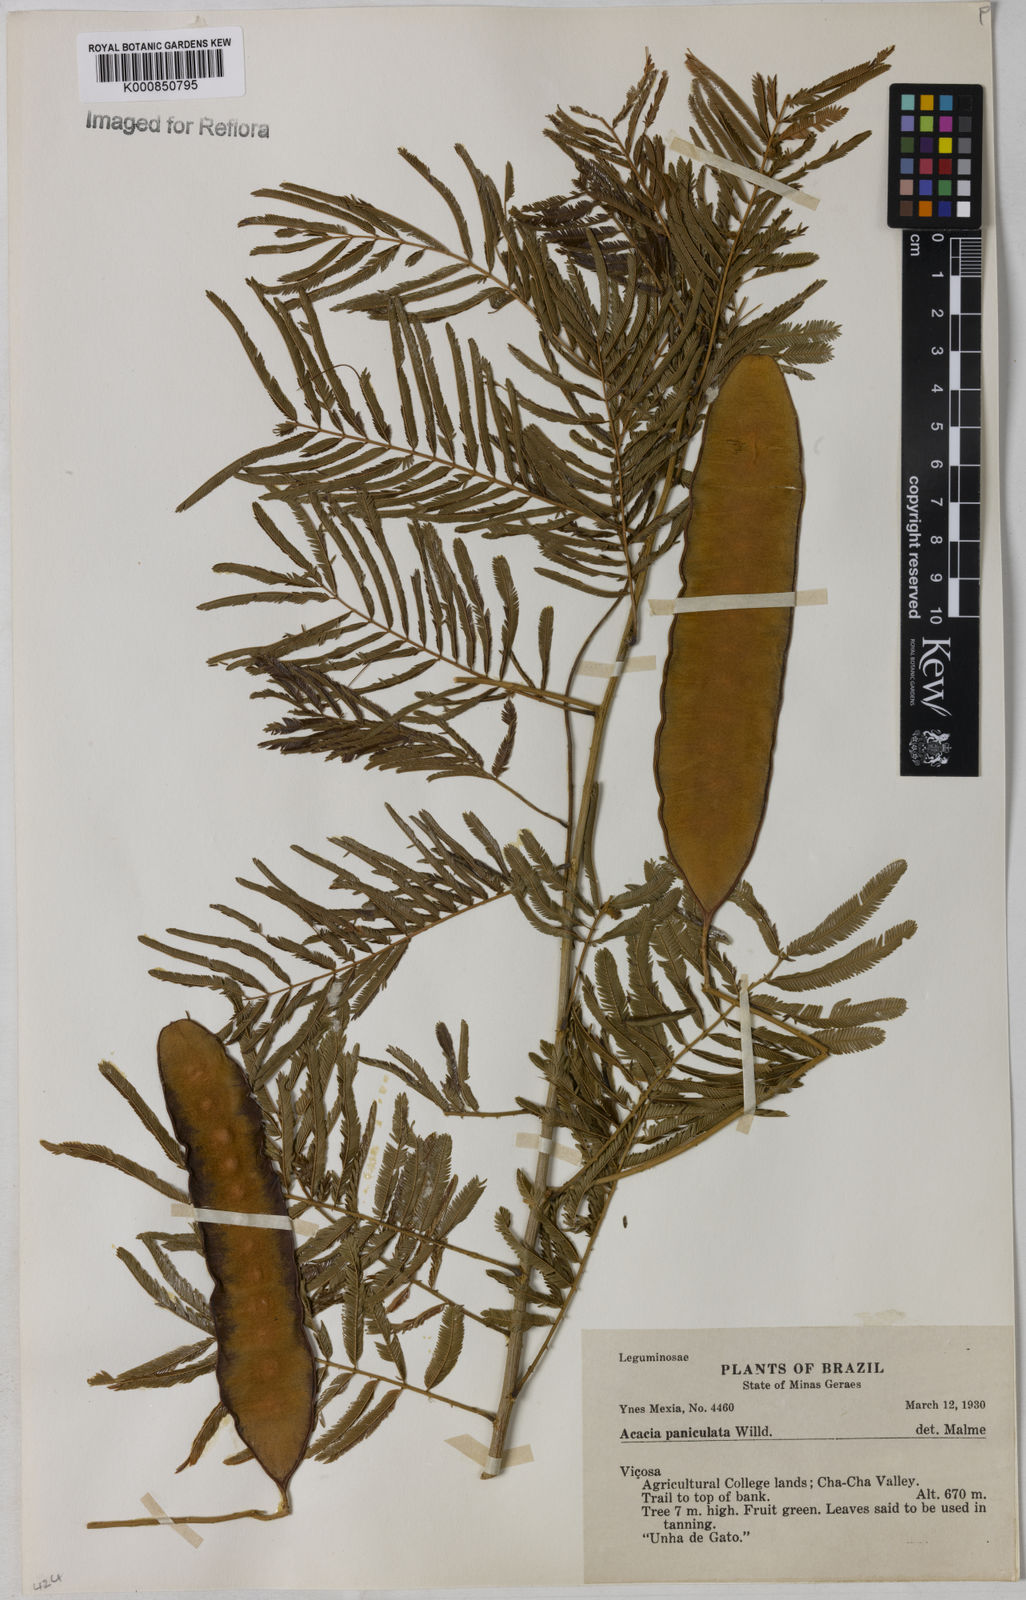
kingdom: Plantae
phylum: Tracheophyta
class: Magnoliopsida
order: Fabales
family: Fabaceae
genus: Senegalia
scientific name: Senegalia tenuifolia
